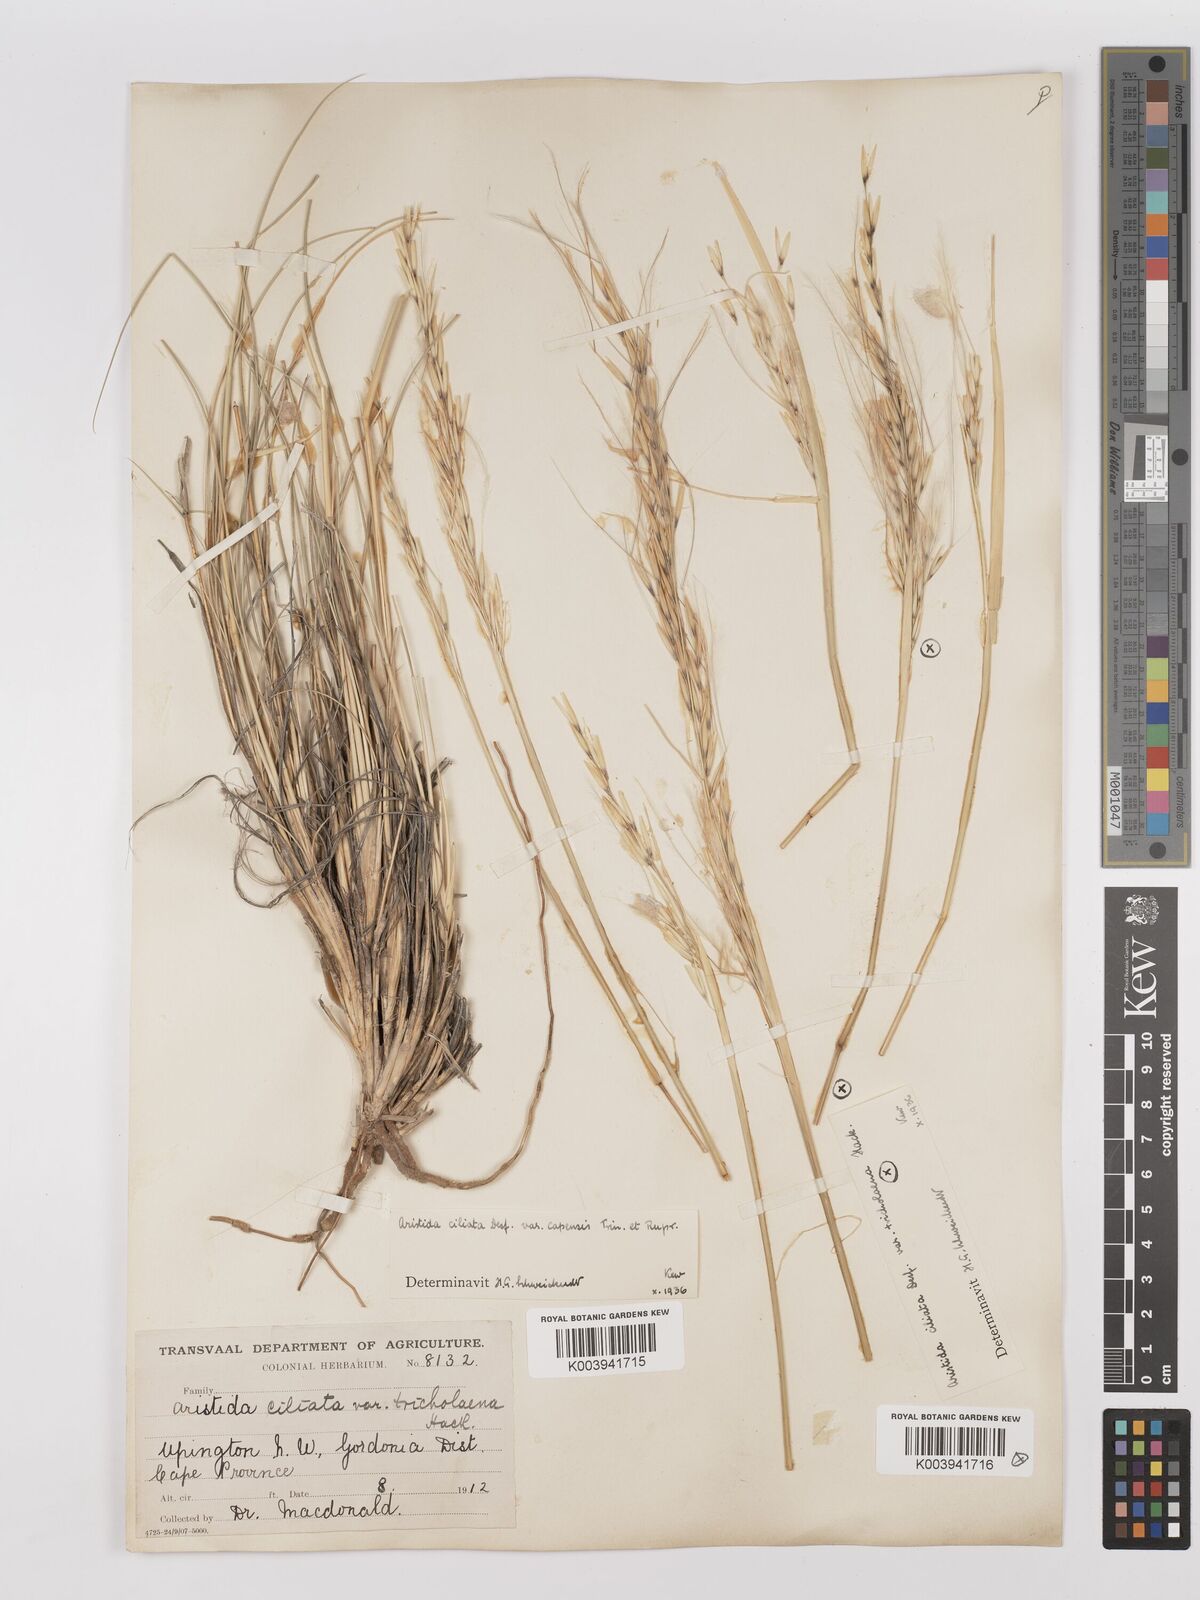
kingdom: Plantae
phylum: Tracheophyta
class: Liliopsida
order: Poales
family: Poaceae
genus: Stipagrostis
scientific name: Stipagrostis ciliata
